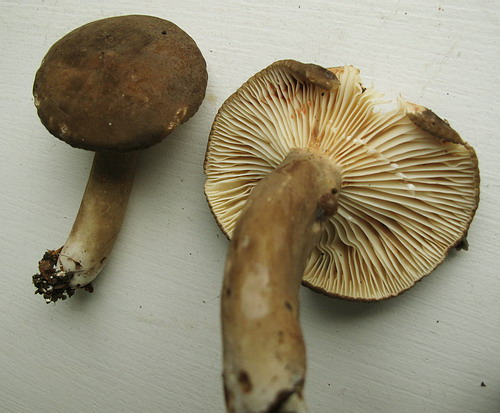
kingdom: Fungi
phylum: Basidiomycota
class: Agaricomycetes
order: Russulales
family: Russulaceae
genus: Lactarius
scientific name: Lactarius romagnesii
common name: fjernbladet mælkehat
